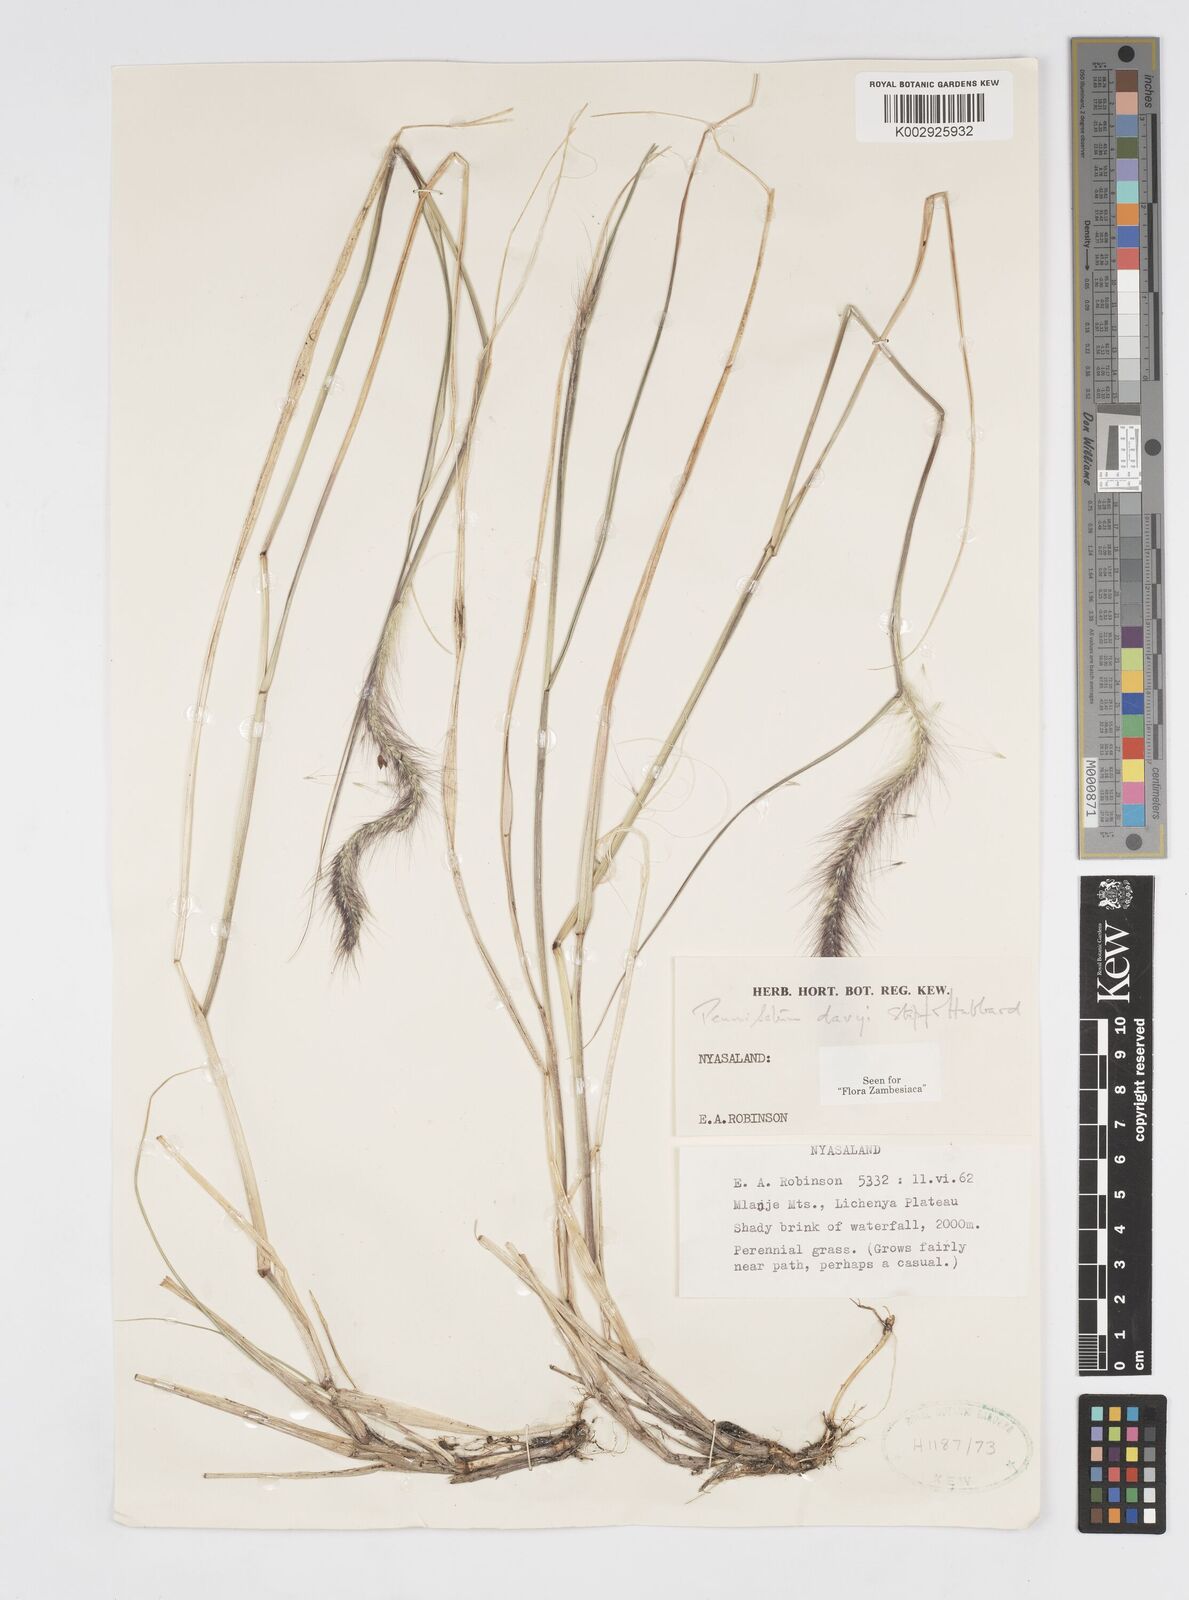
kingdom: Plantae
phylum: Tracheophyta
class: Liliopsida
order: Poales
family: Poaceae
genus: Cenchrus
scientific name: Cenchrus caudatus
